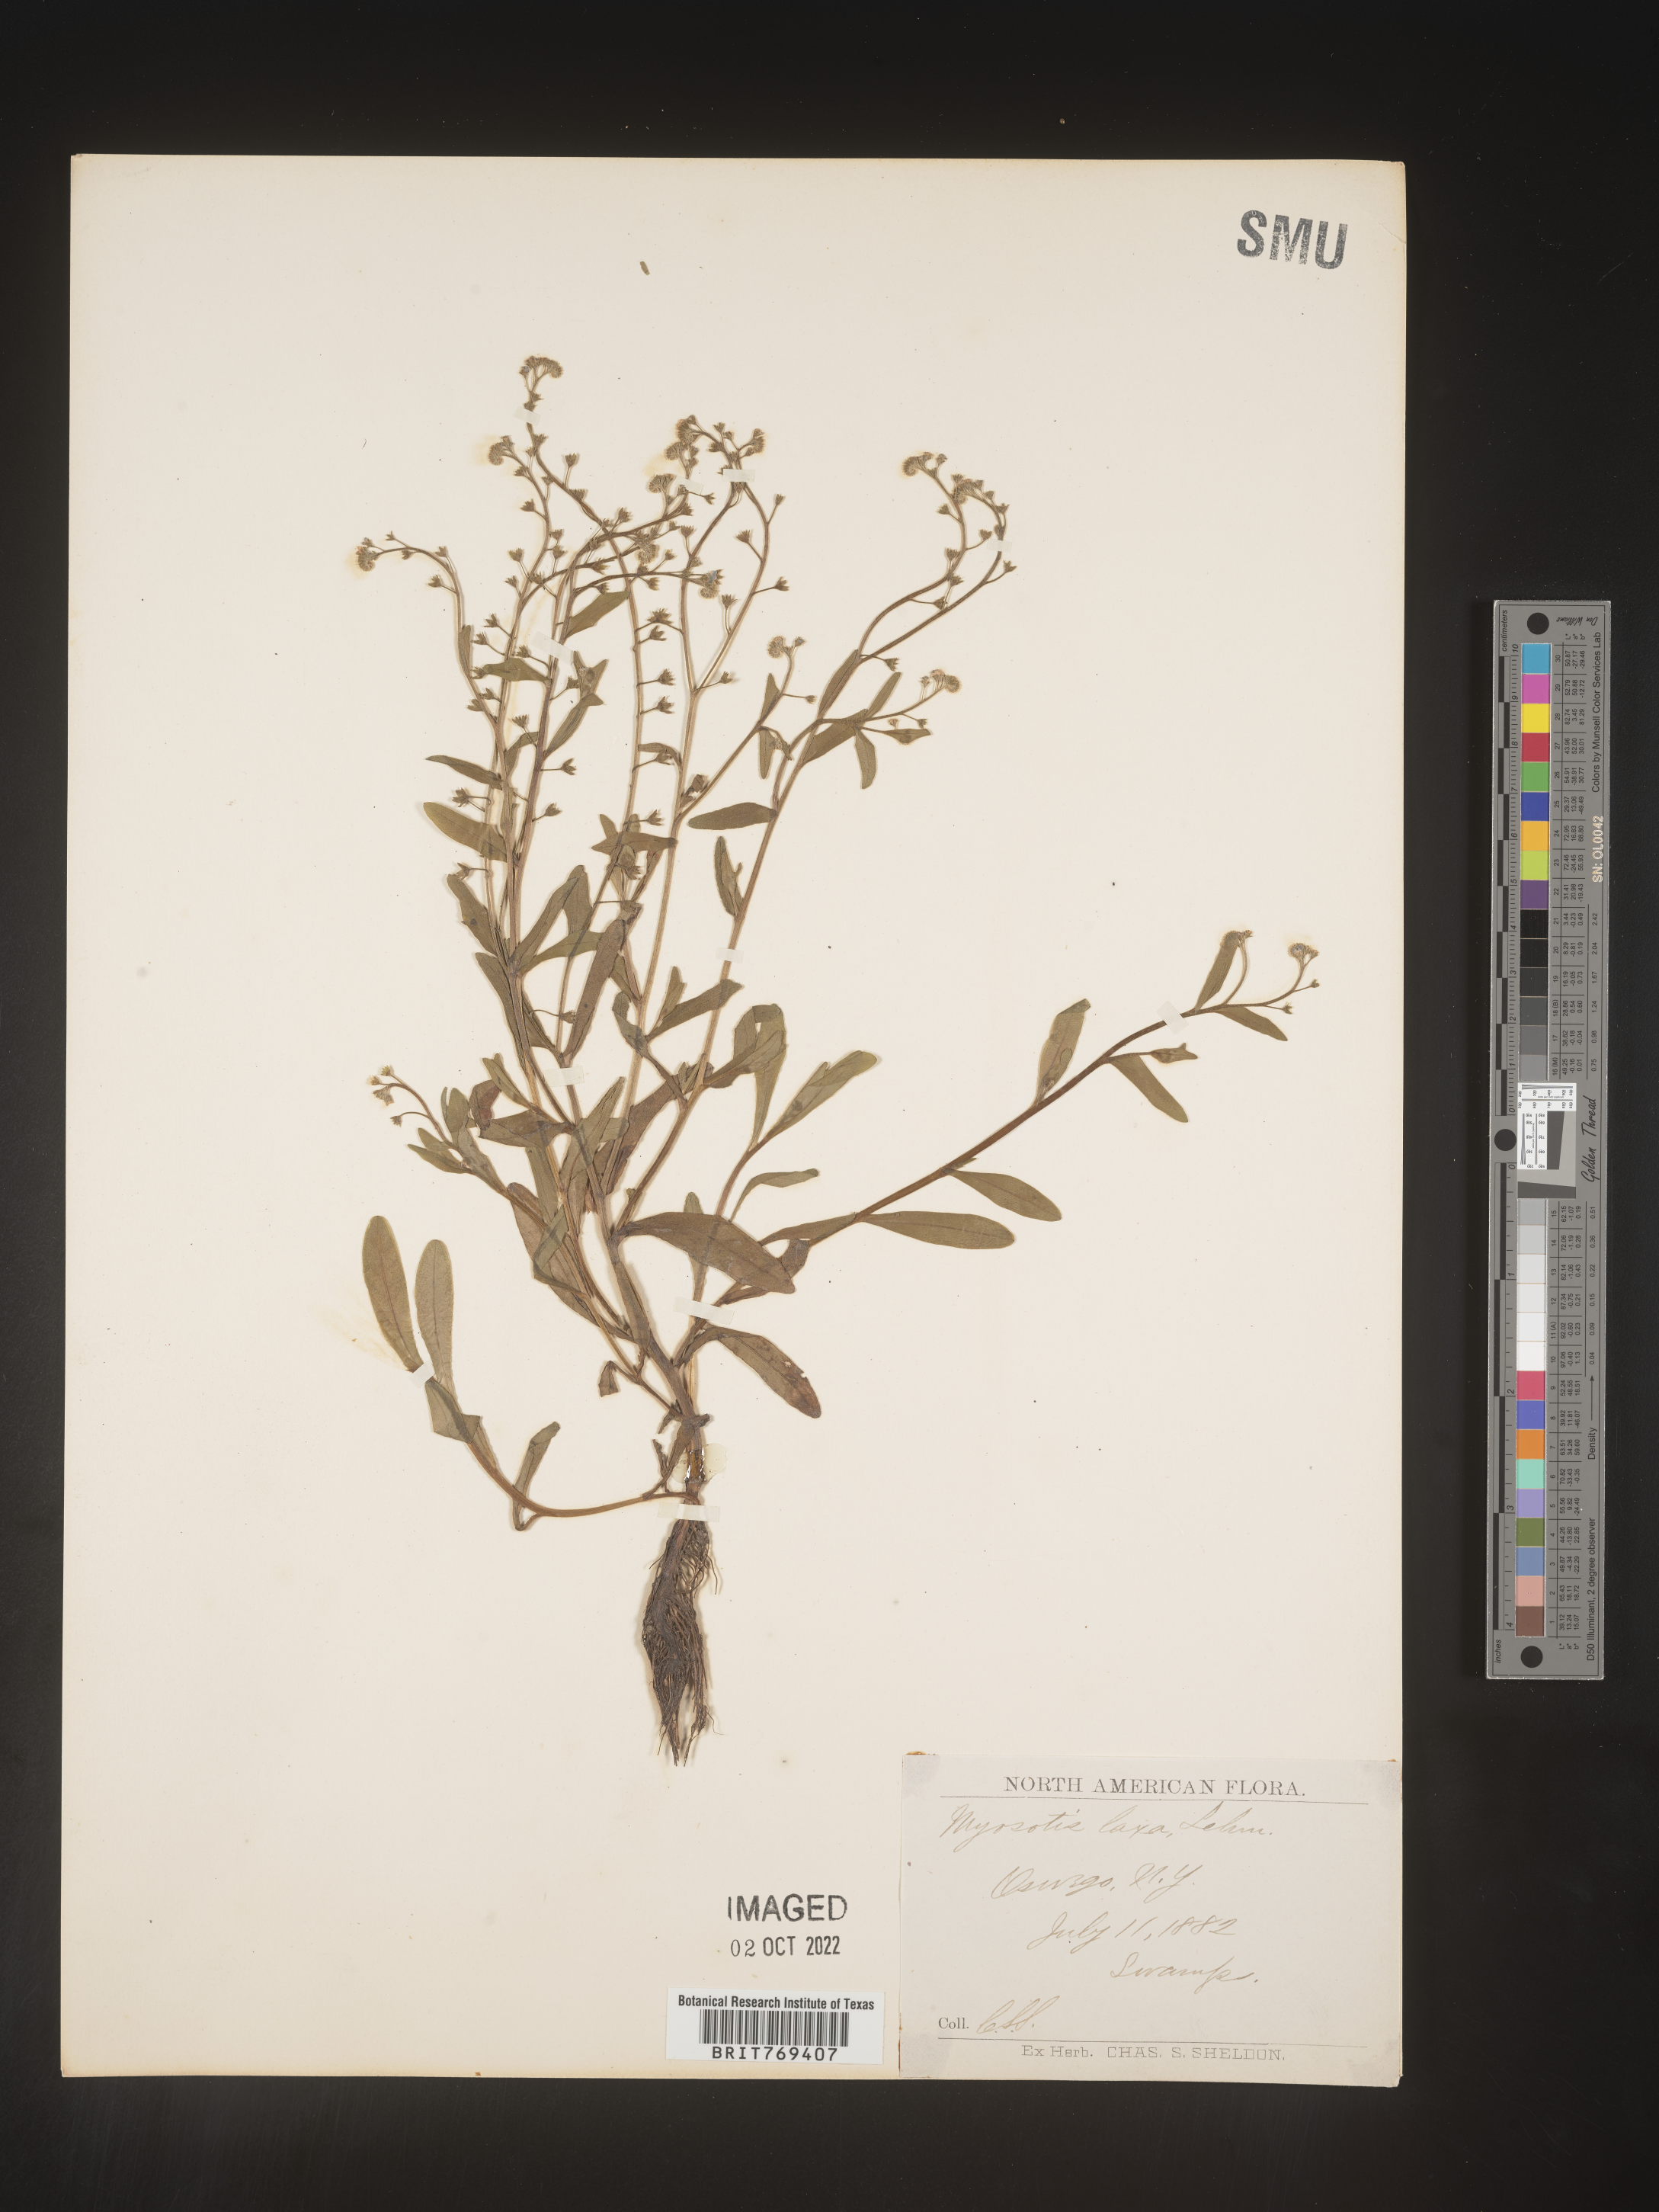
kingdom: Plantae
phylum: Tracheophyta
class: Magnoliopsida
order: Boraginales
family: Boraginaceae
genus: Myosotis
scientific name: Myosotis
